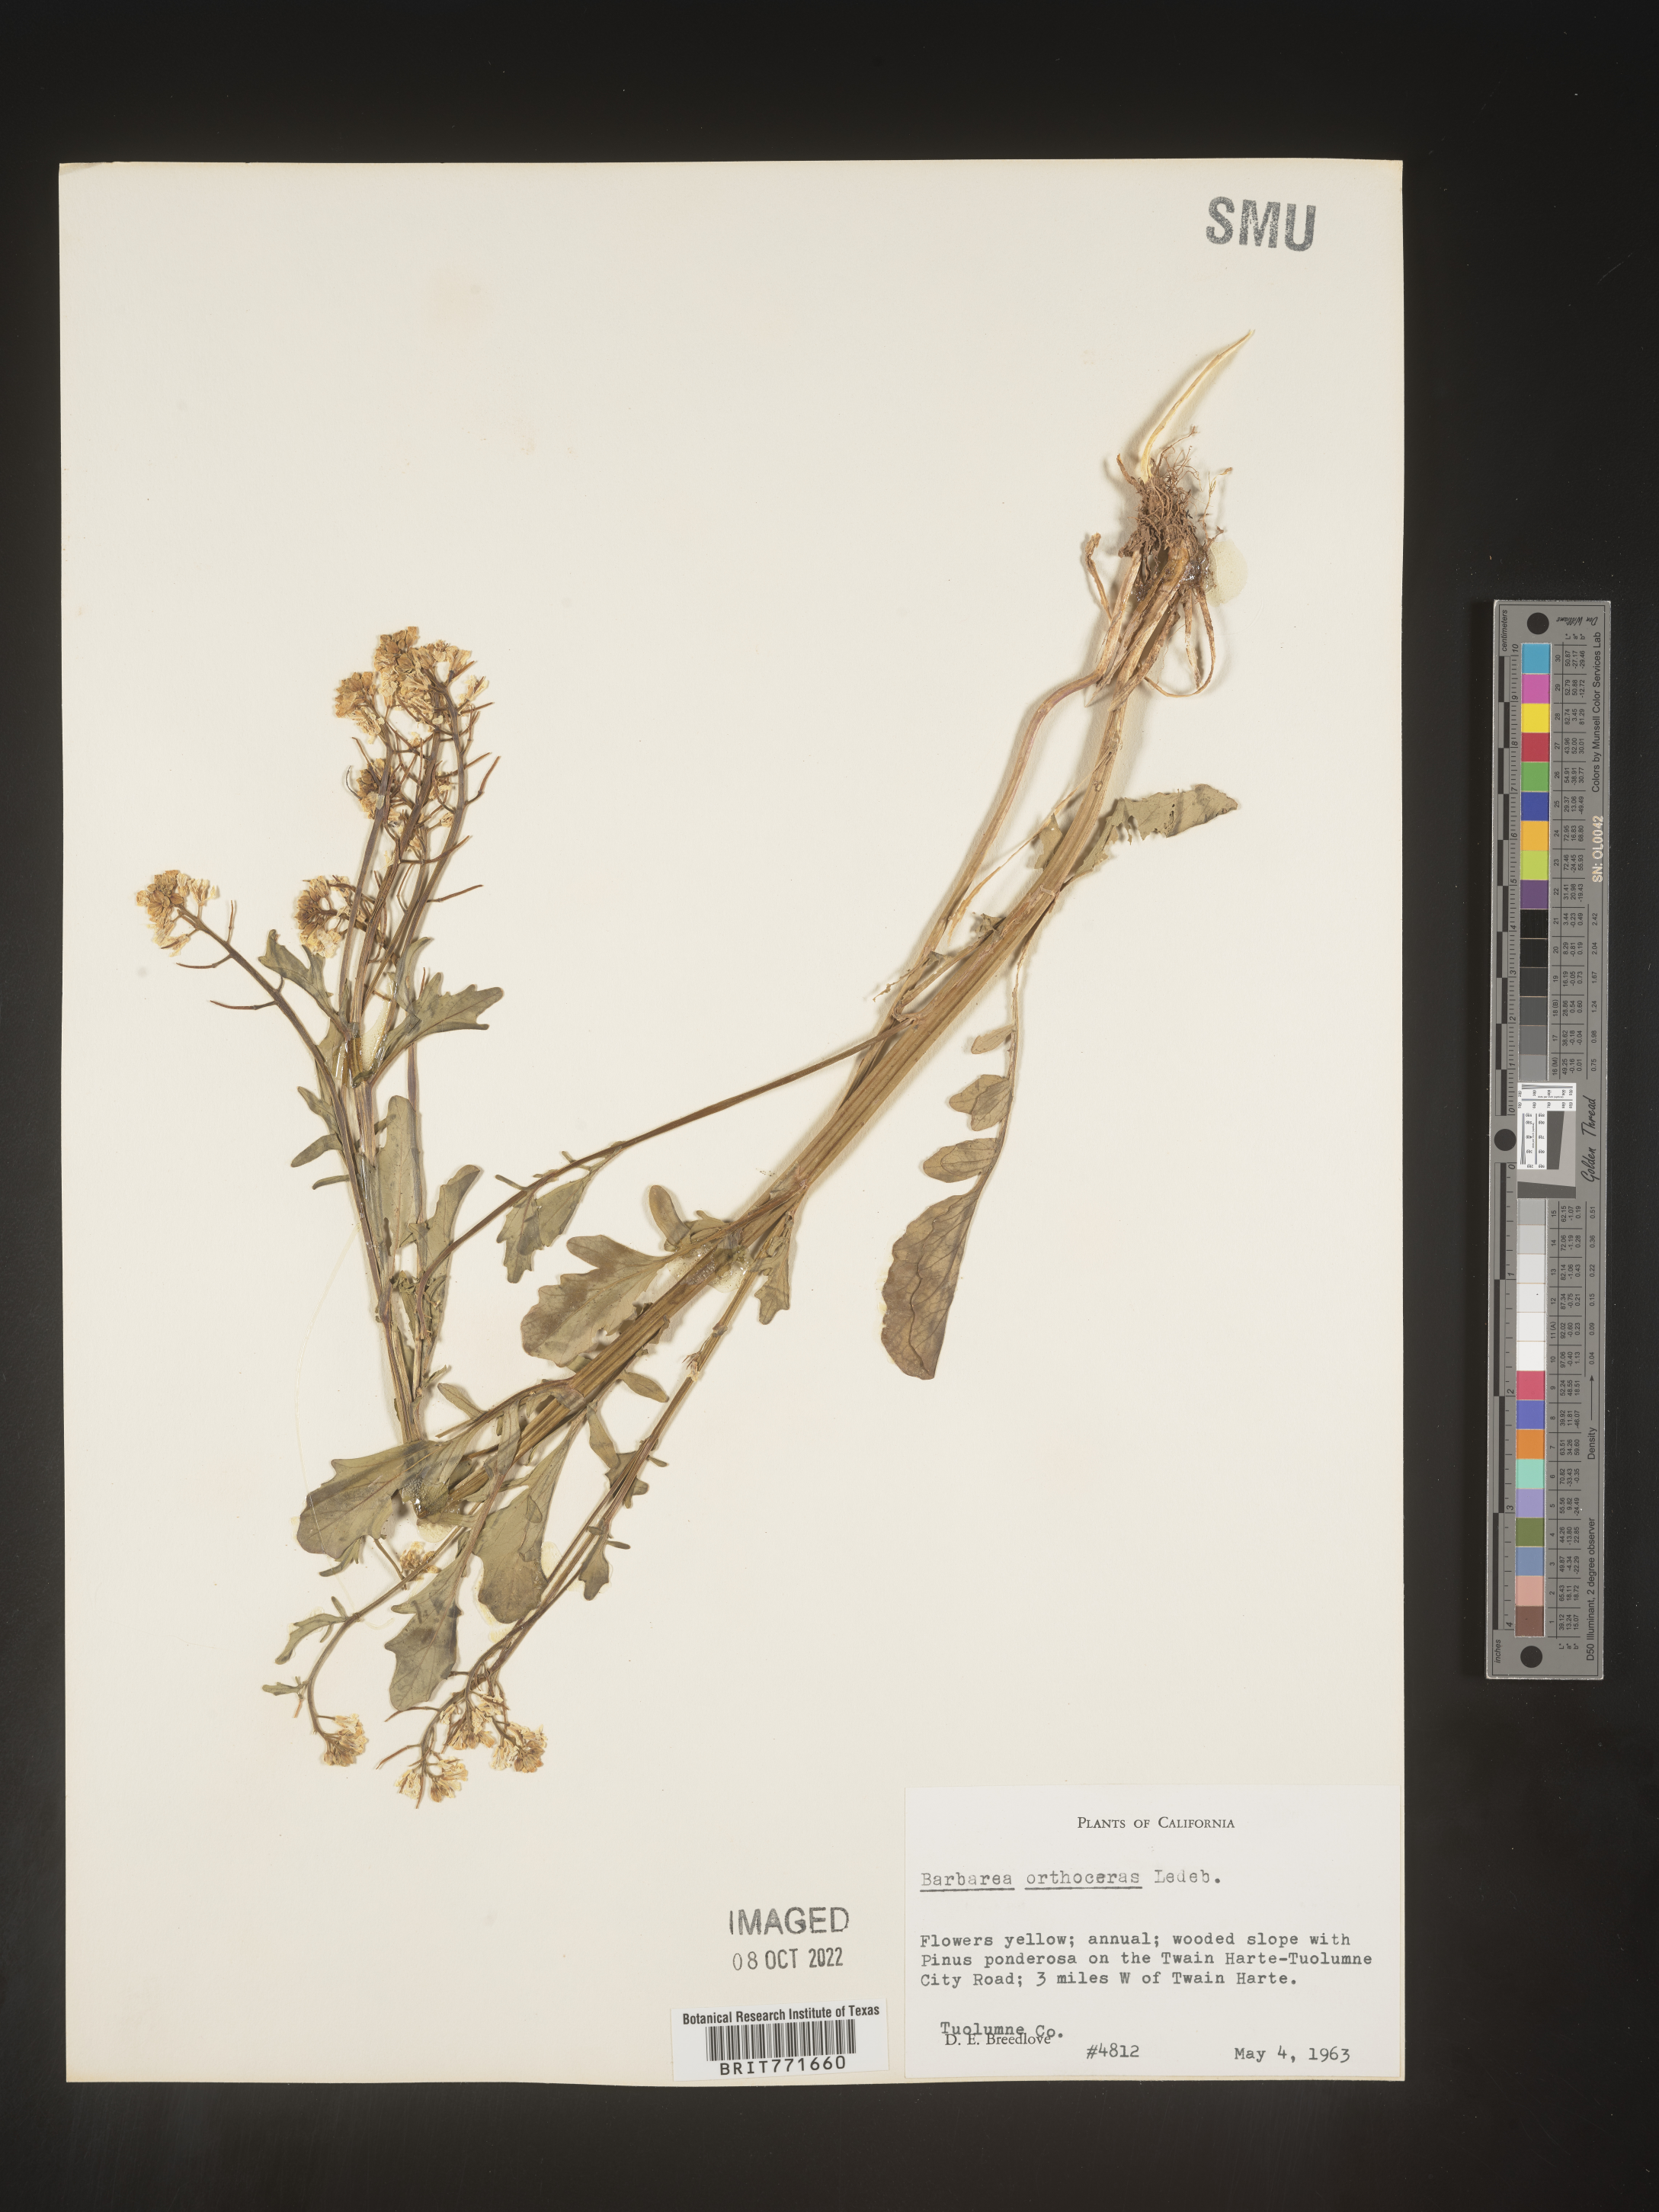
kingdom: Plantae
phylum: Tracheophyta
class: Magnoliopsida
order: Brassicales
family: Brassicaceae
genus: Barbarea
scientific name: Barbarea
